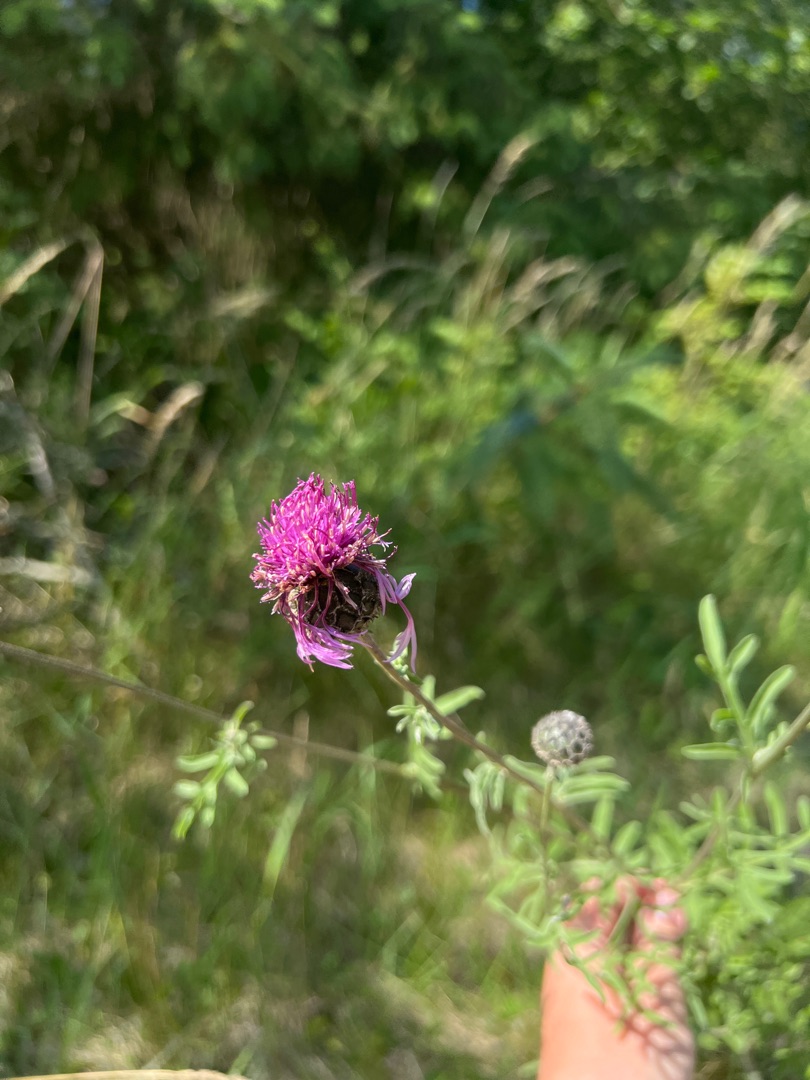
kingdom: Plantae
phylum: Tracheophyta
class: Magnoliopsida
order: Asterales
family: Asteraceae
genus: Centaurea
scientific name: Centaurea scabiosa
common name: Stor knopurt
